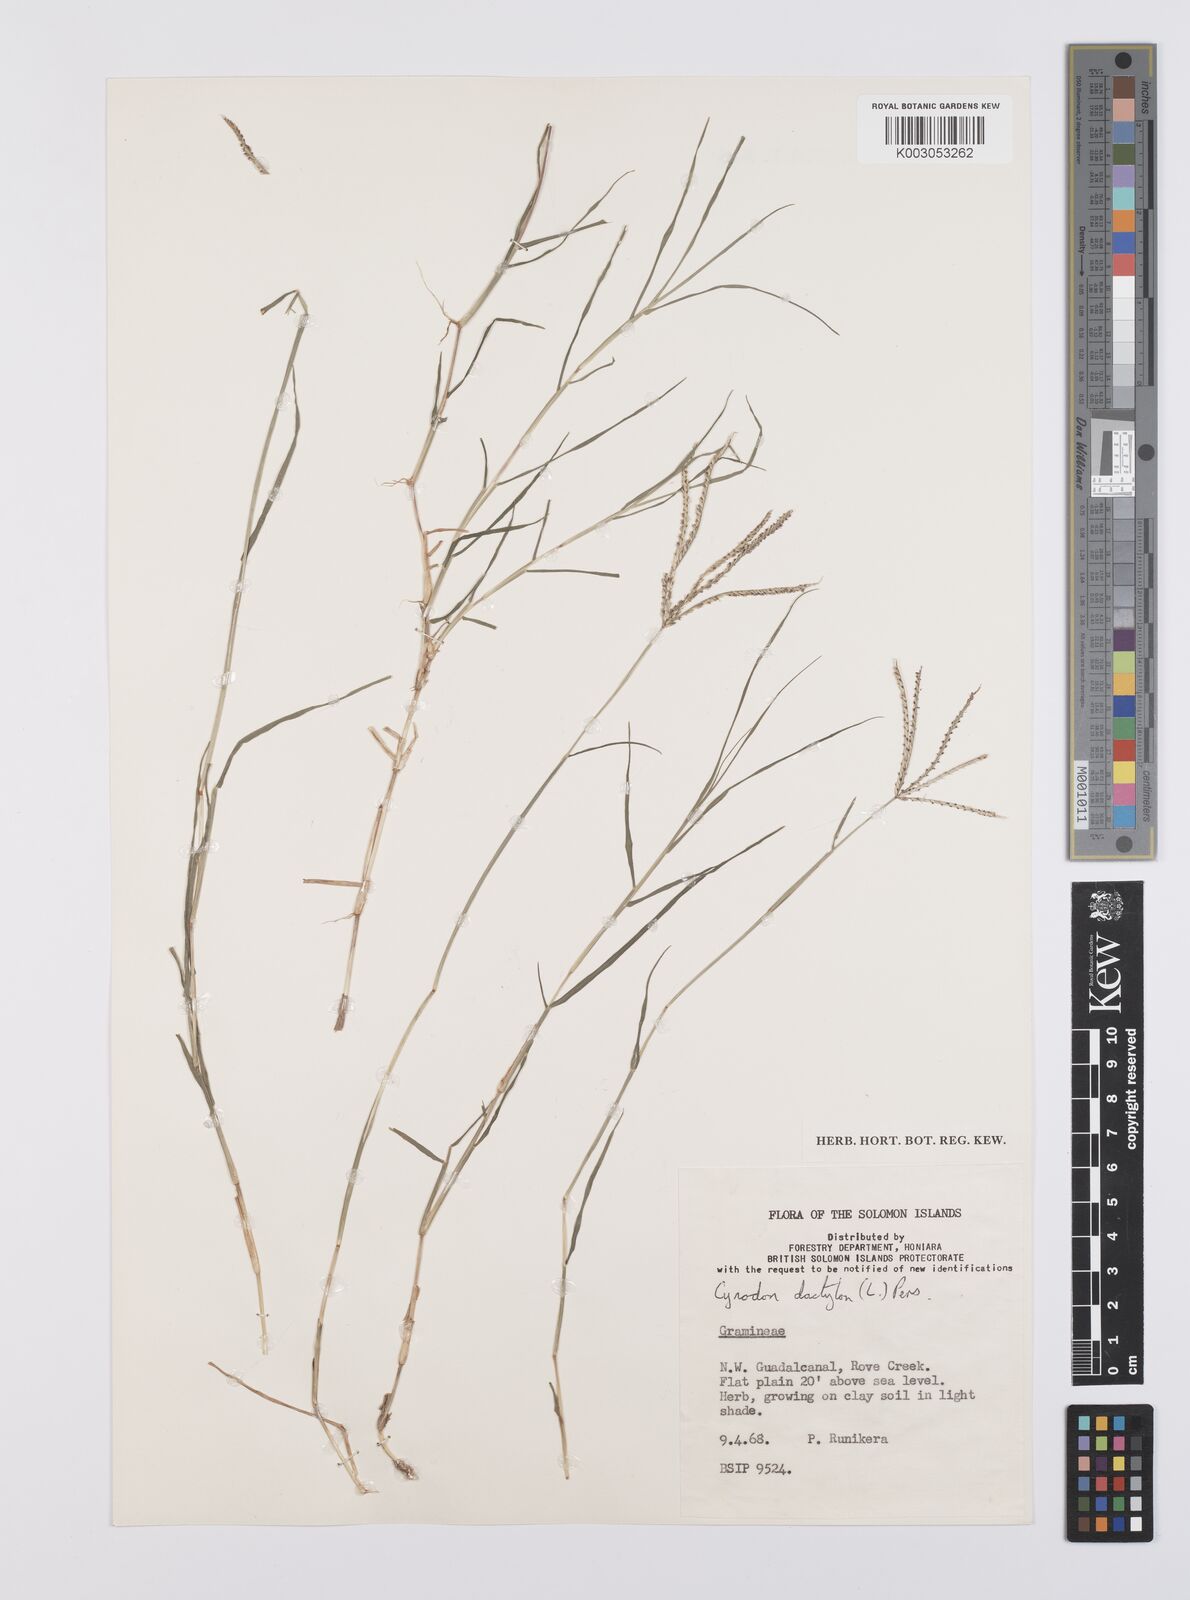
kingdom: Plantae
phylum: Tracheophyta
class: Liliopsida
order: Poales
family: Poaceae
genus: Cynodon
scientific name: Cynodon dactylon
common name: Bermuda grass
